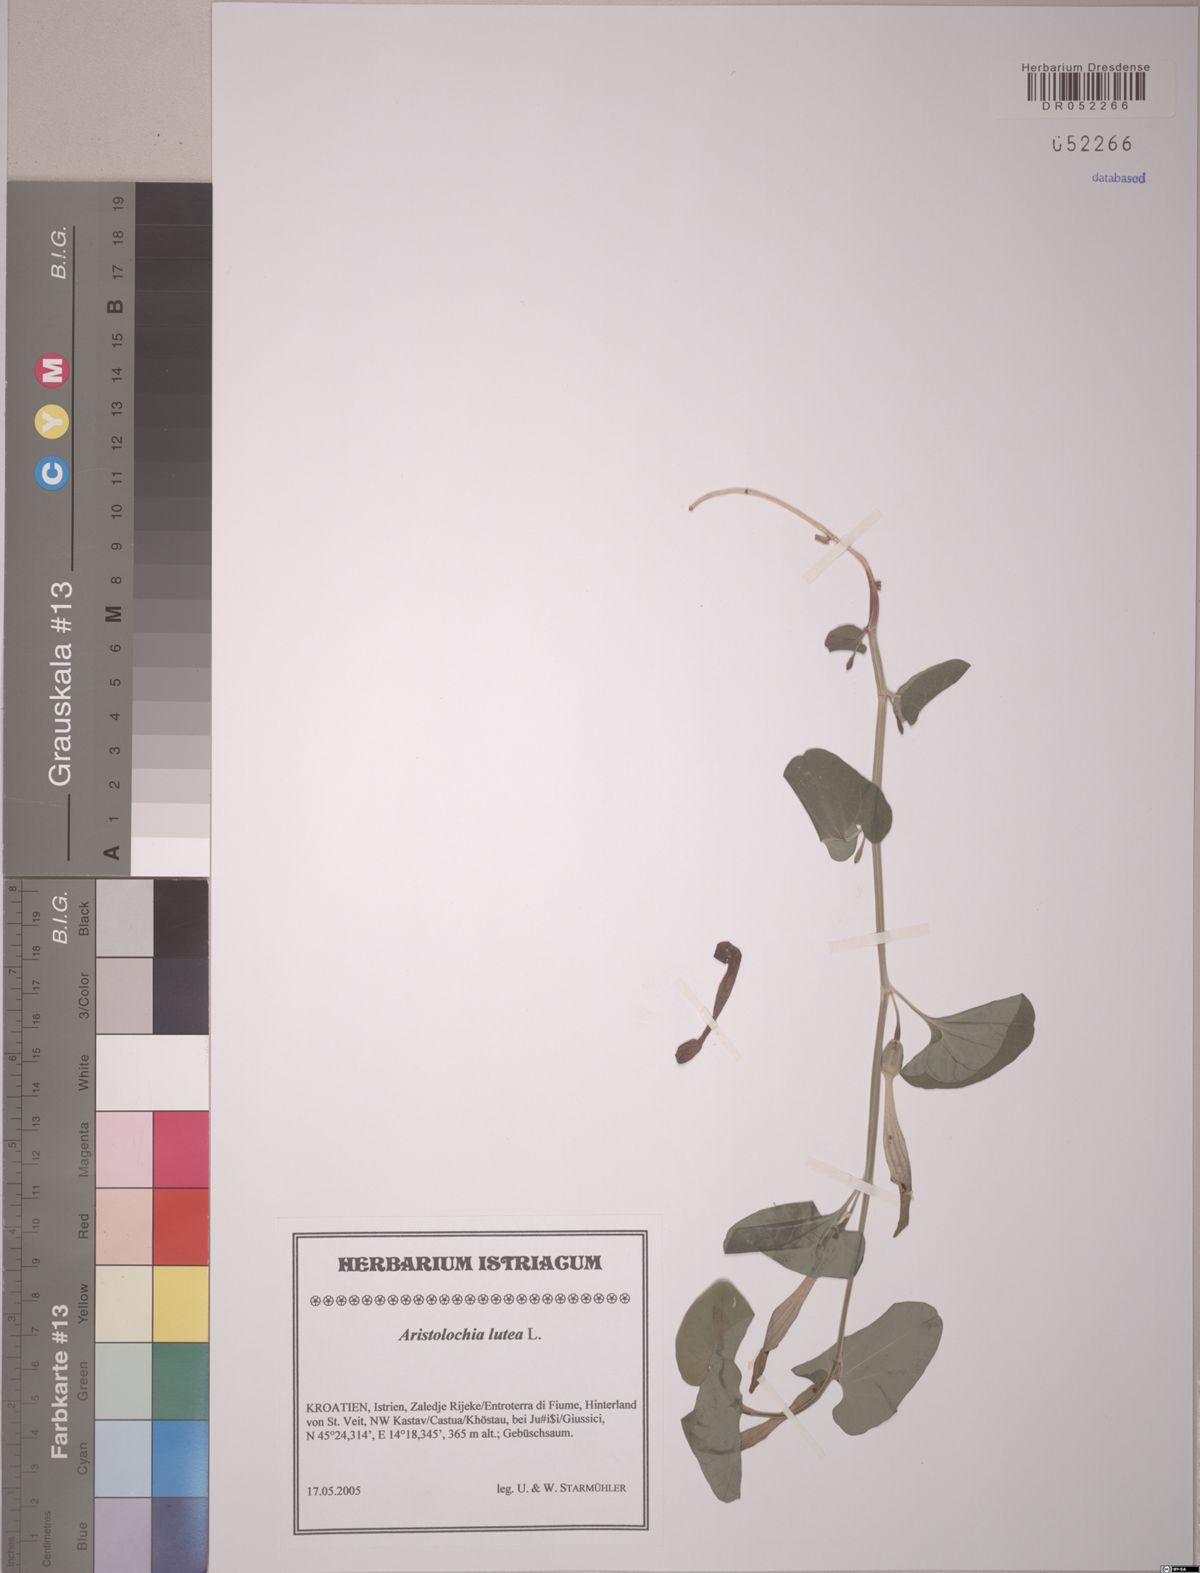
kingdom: Plantae
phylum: Tracheophyta
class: Magnoliopsida
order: Piperales
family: Aristolochiaceae
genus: Aristolochia
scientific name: Aristolochia lutea
